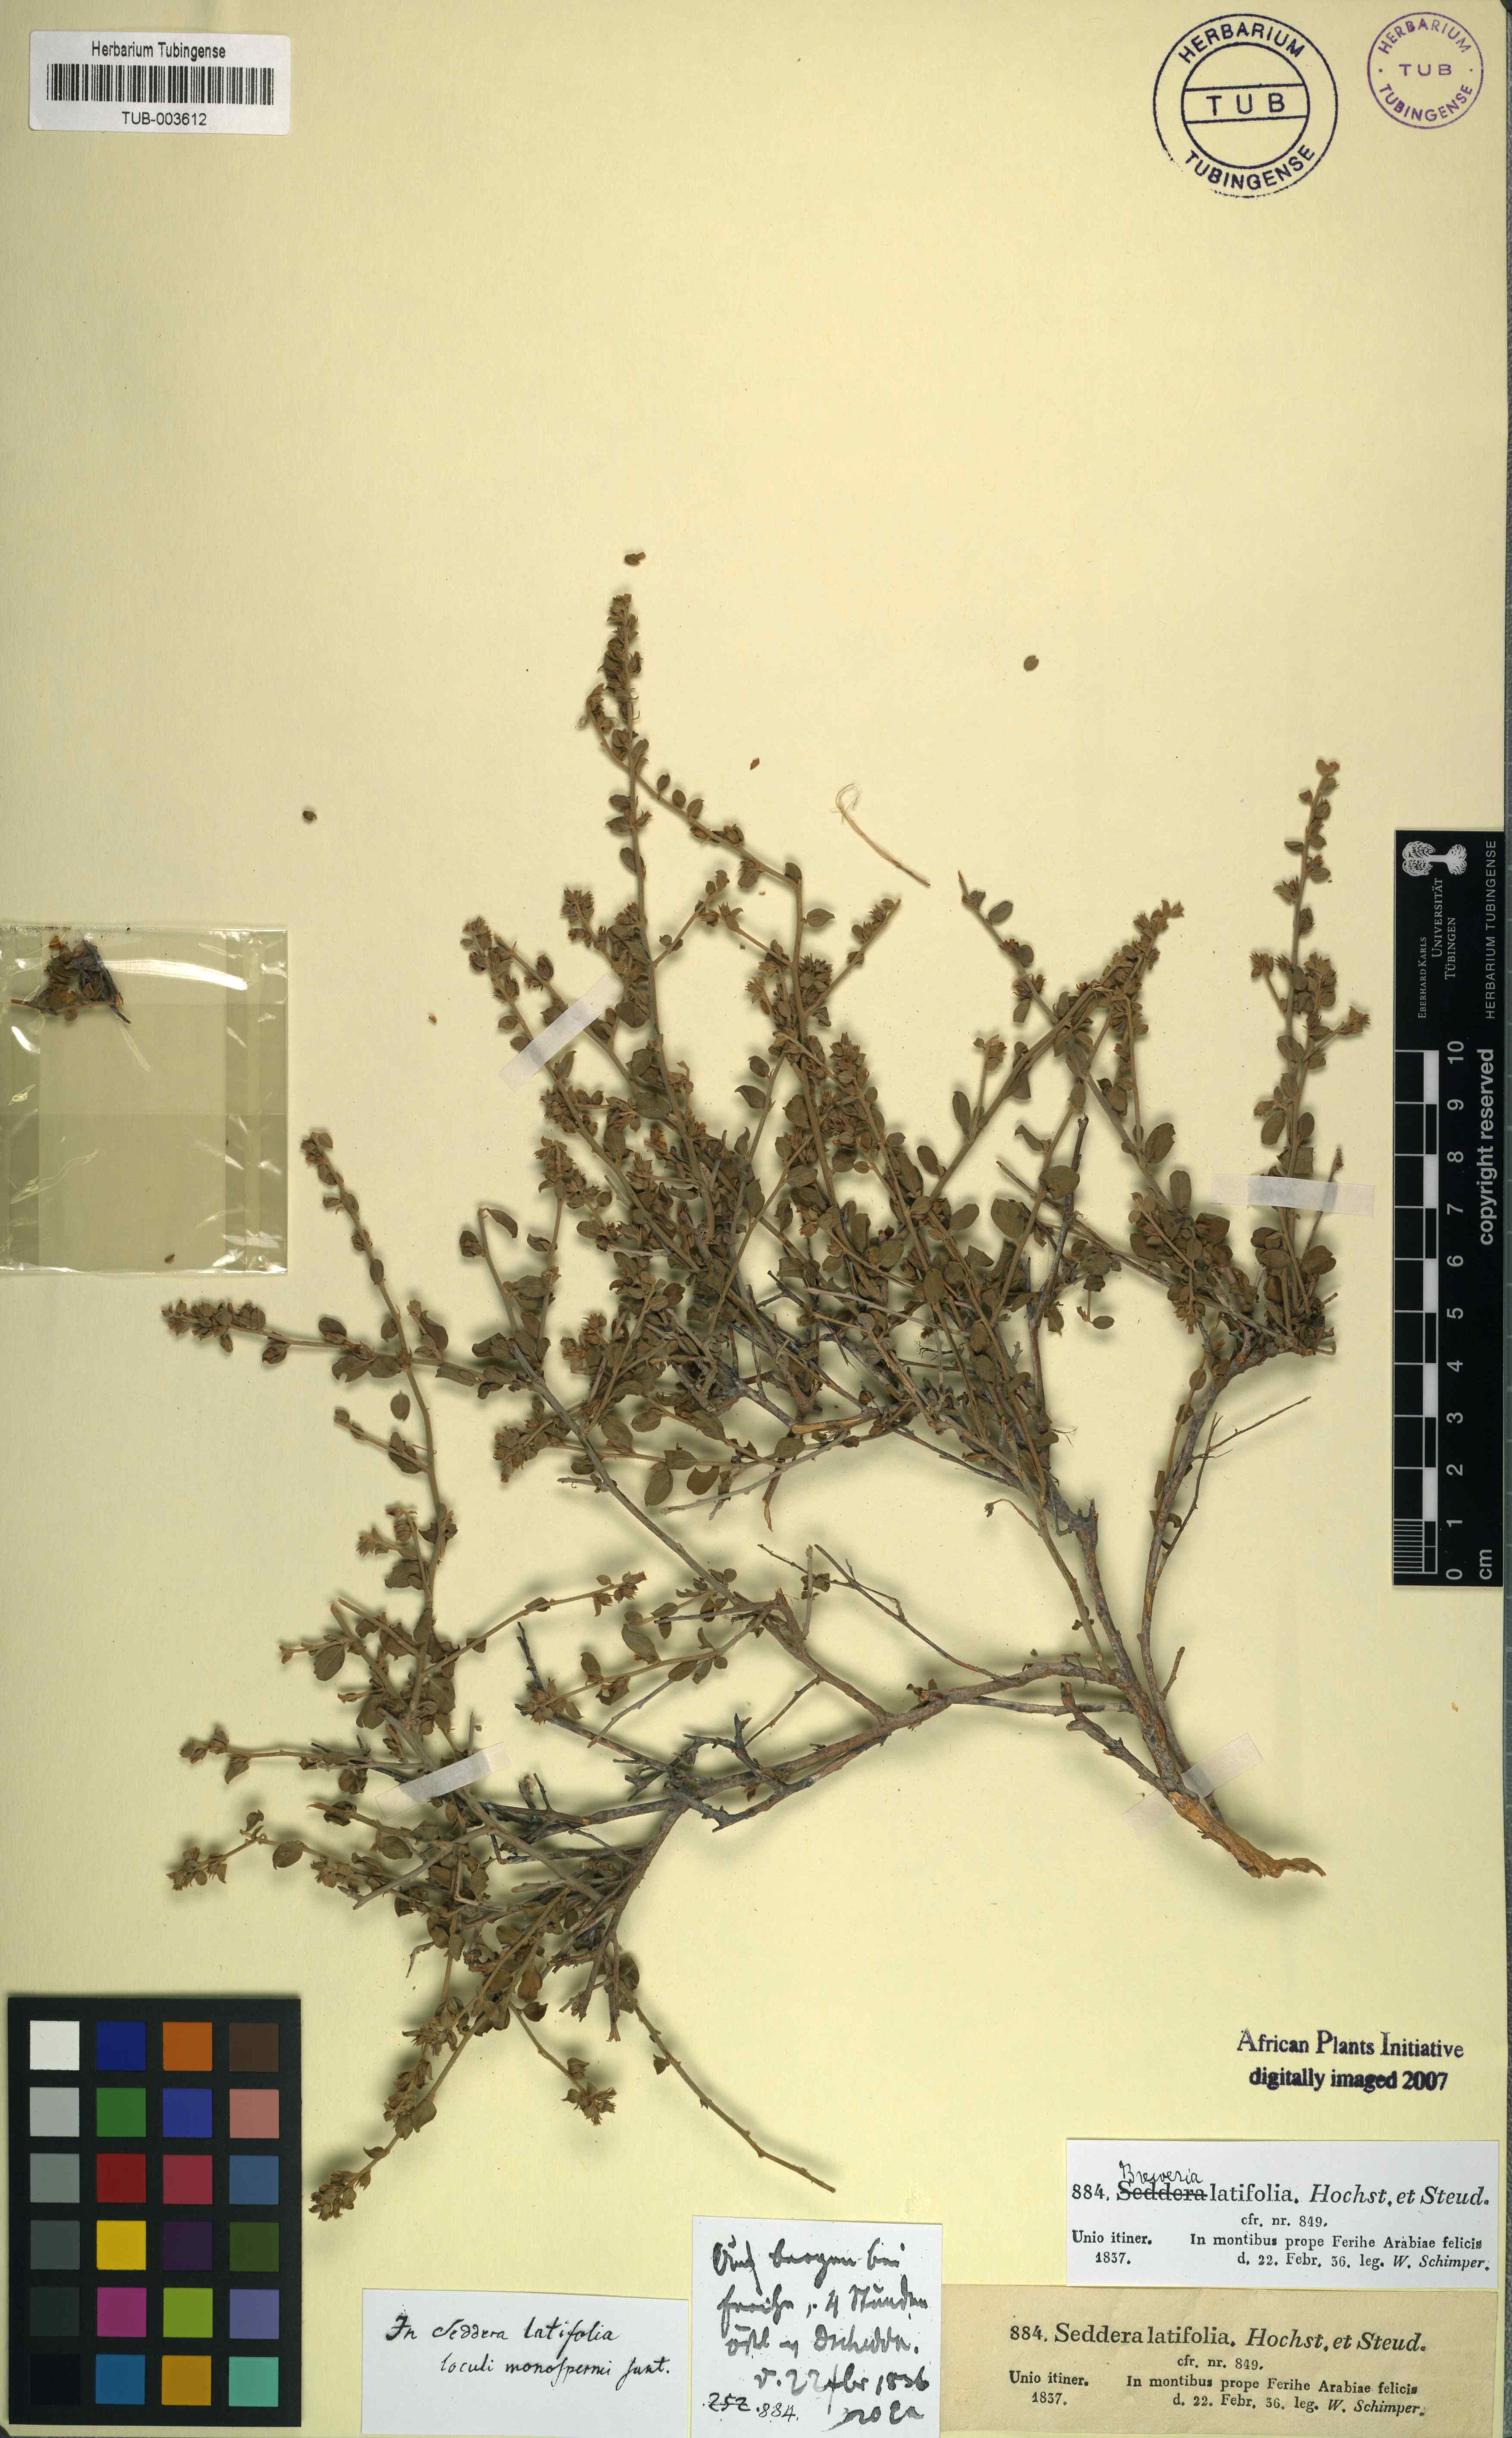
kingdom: Plantae
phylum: Tracheophyta
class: Magnoliopsida
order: Solanales
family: Convolvulaceae
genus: Seddera
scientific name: Seddera latifolia
